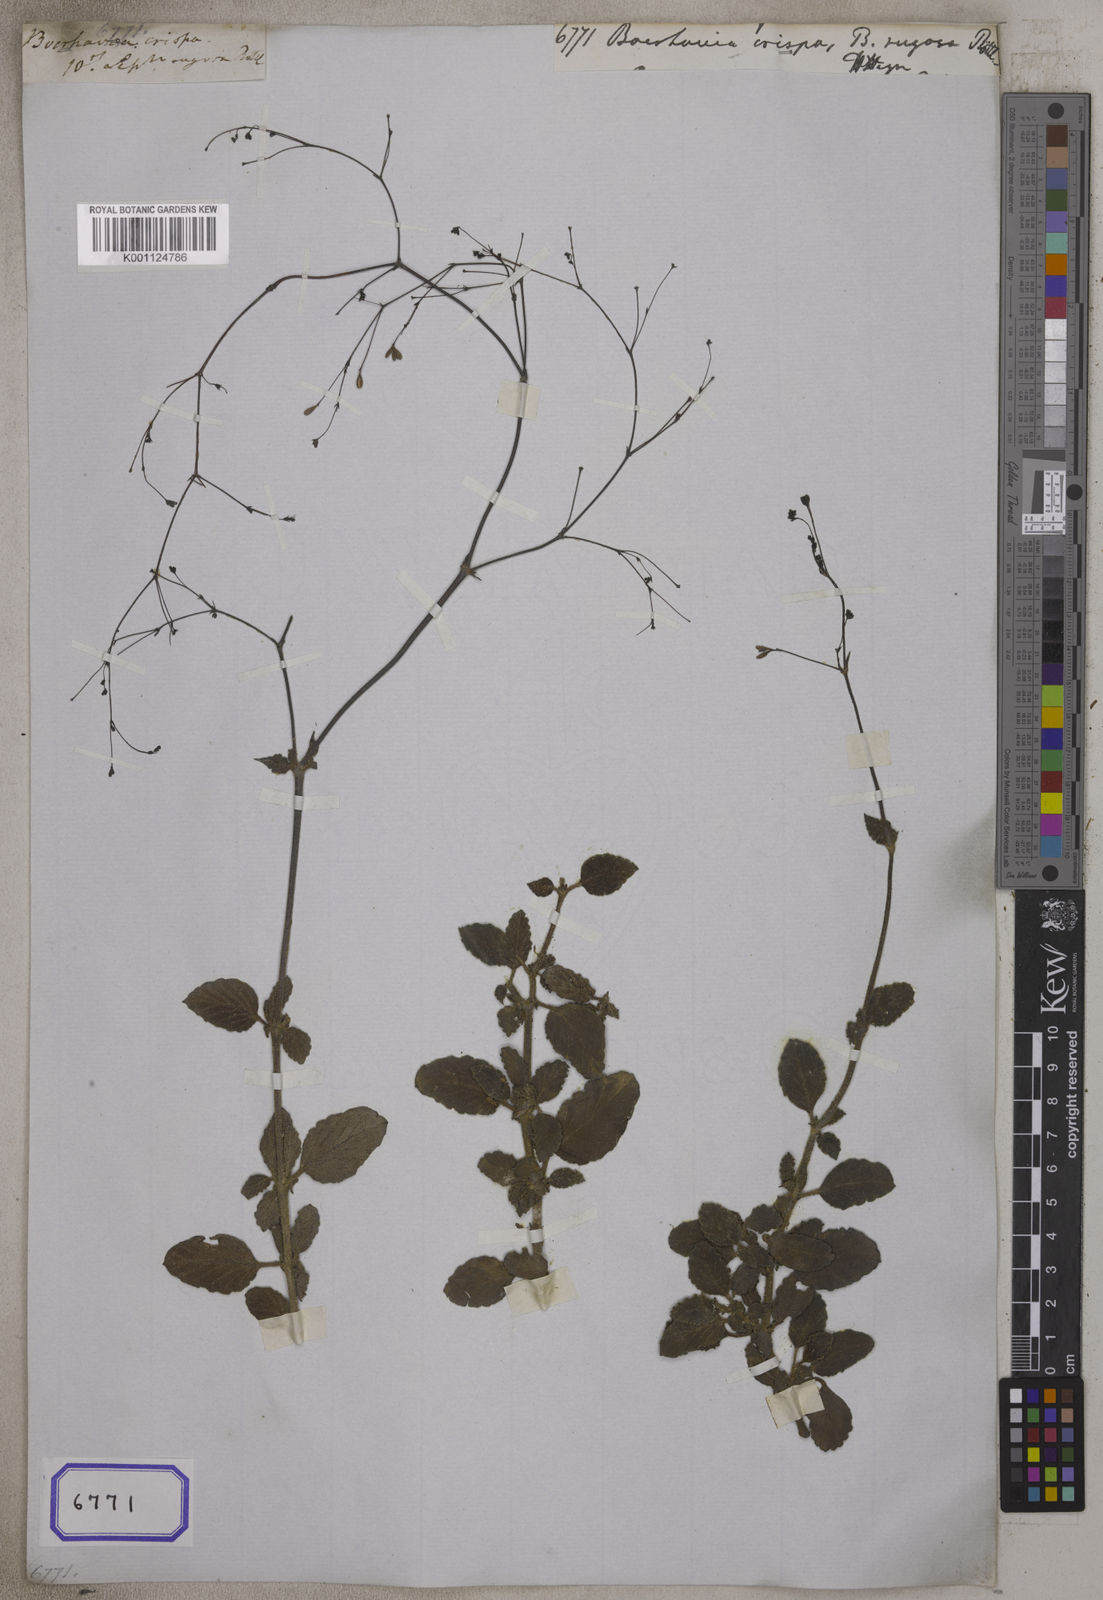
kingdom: Plantae
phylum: Tracheophyta
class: Magnoliopsida
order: Caryophyllales
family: Nyctaginaceae
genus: Boerhavia
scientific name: Boerhavia
